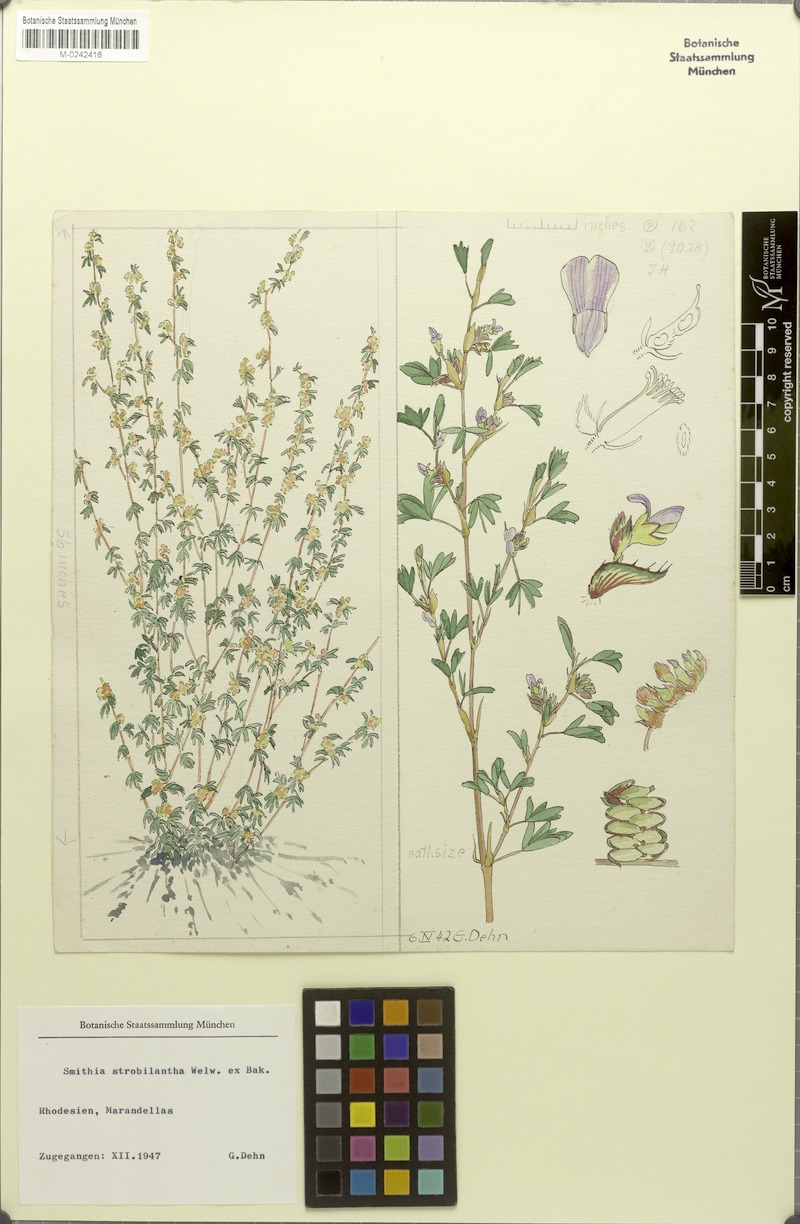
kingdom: Plantae
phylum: Tracheophyta
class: Magnoliopsida
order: Fabales
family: Fabaceae
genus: Kotschya
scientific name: Kotschya strobilantha
